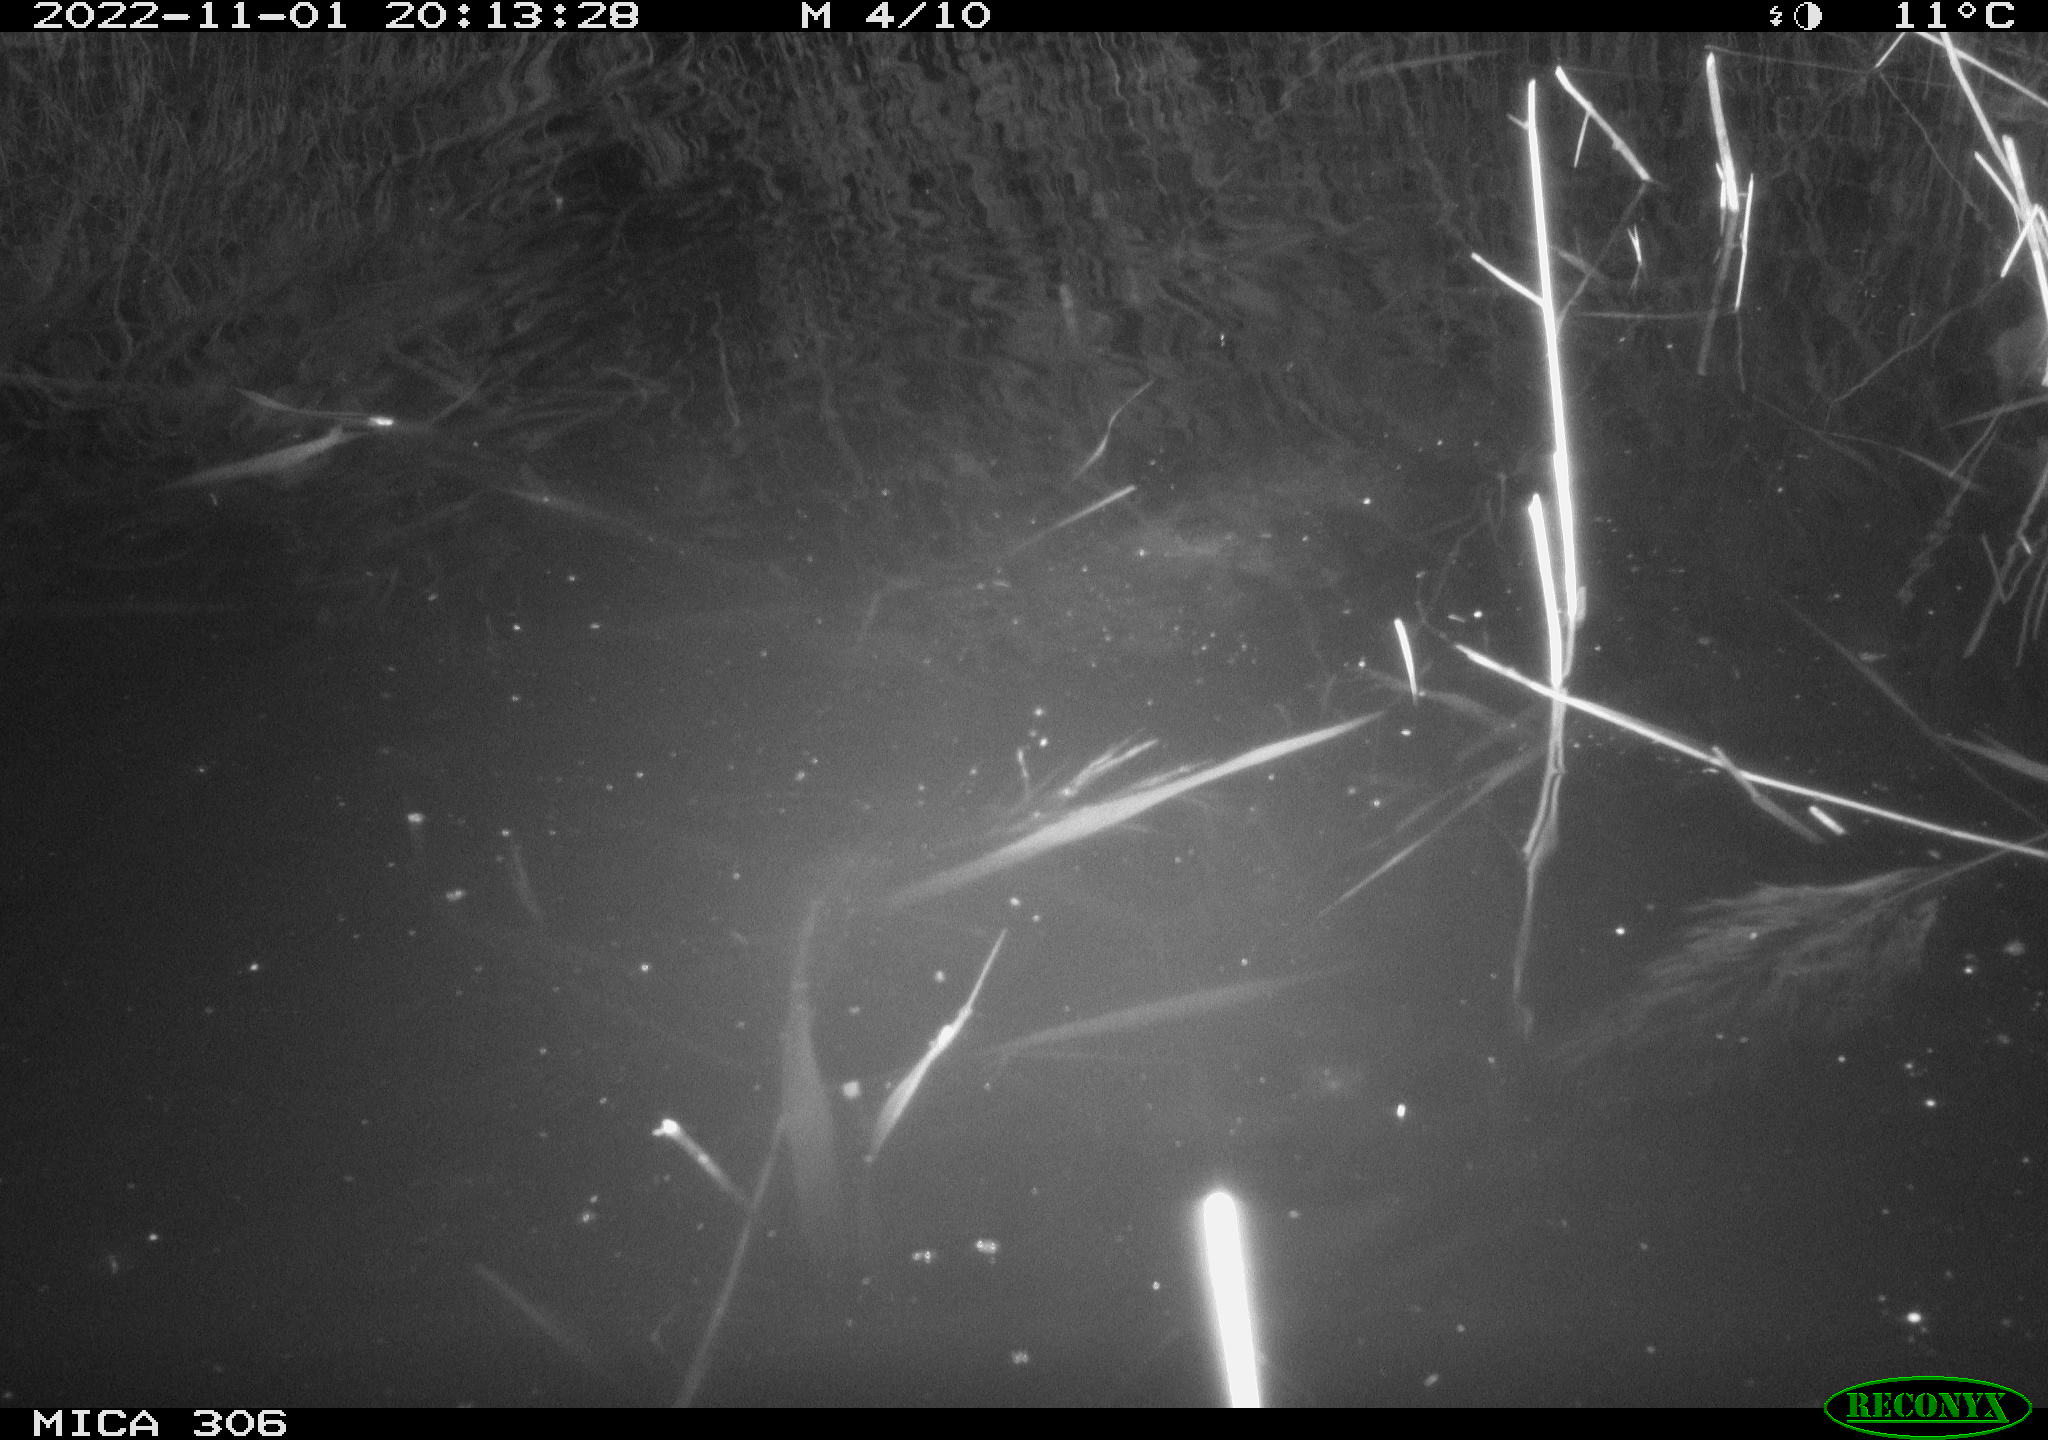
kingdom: Animalia
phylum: Chordata
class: Mammalia
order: Rodentia
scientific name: Rodentia
